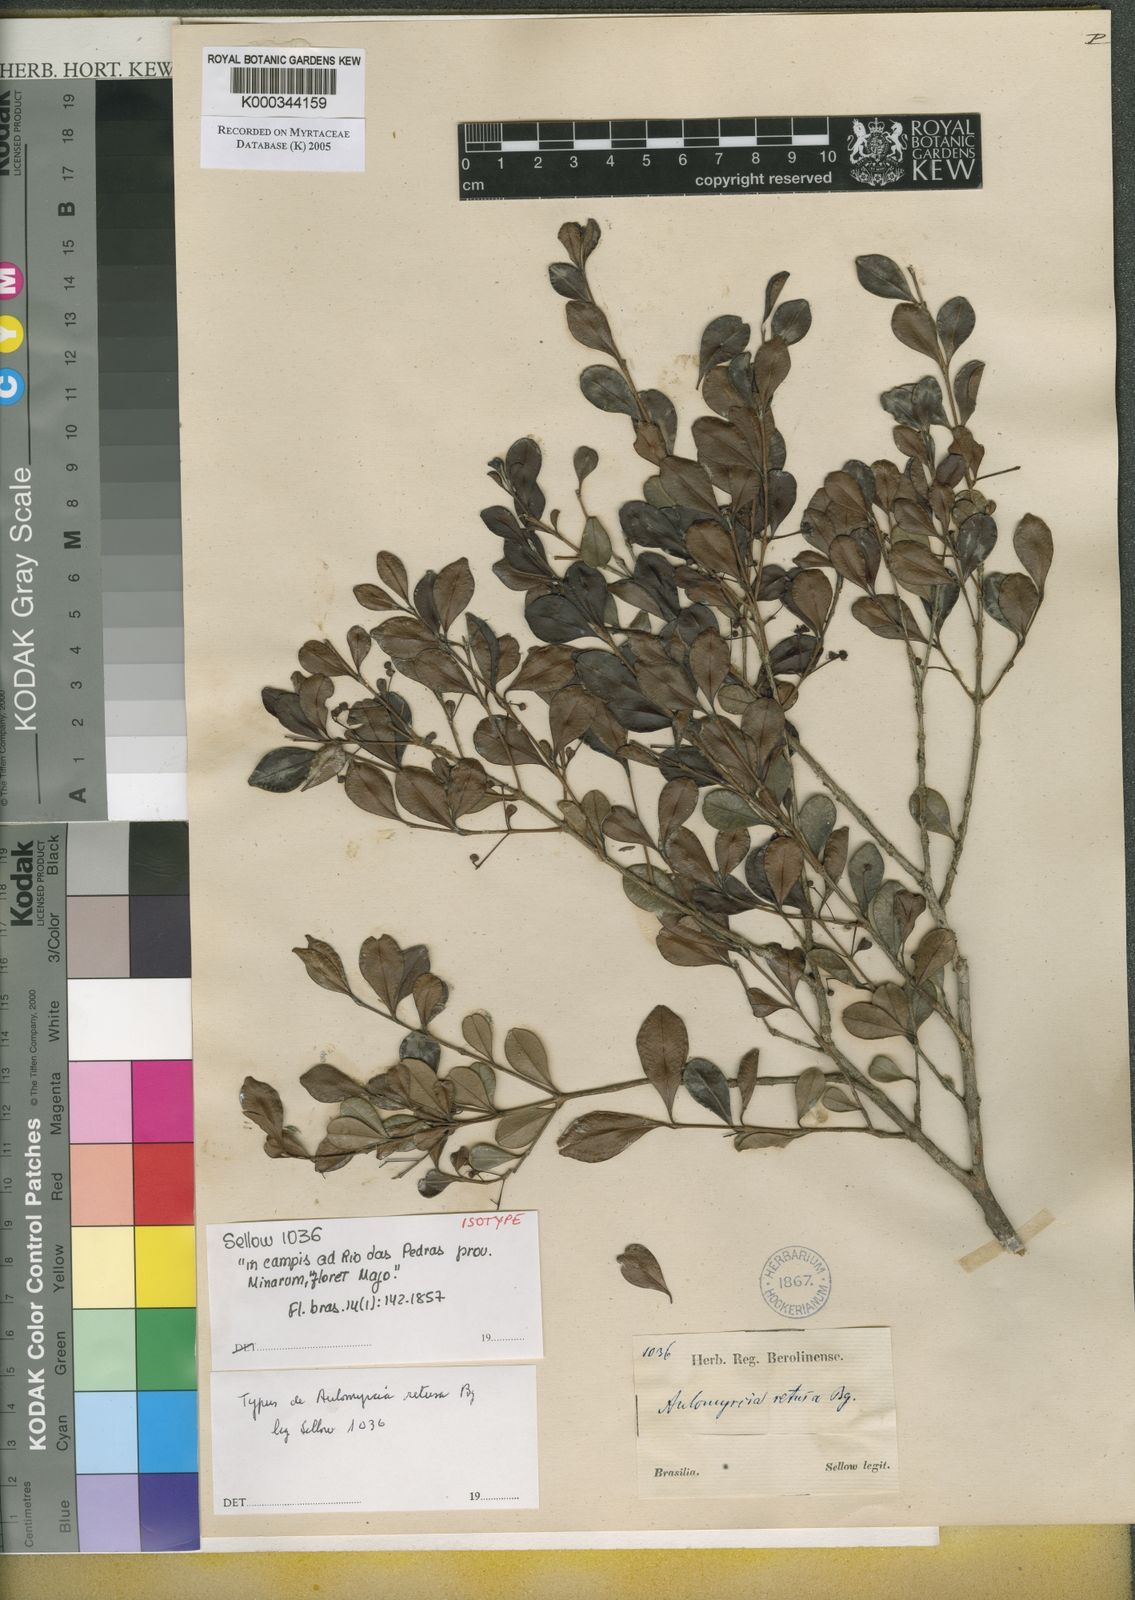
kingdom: Plantae
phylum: Tracheophyta
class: Magnoliopsida
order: Myrtales
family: Myrtaceae
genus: Myrcia
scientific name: Myrcia guianensis
